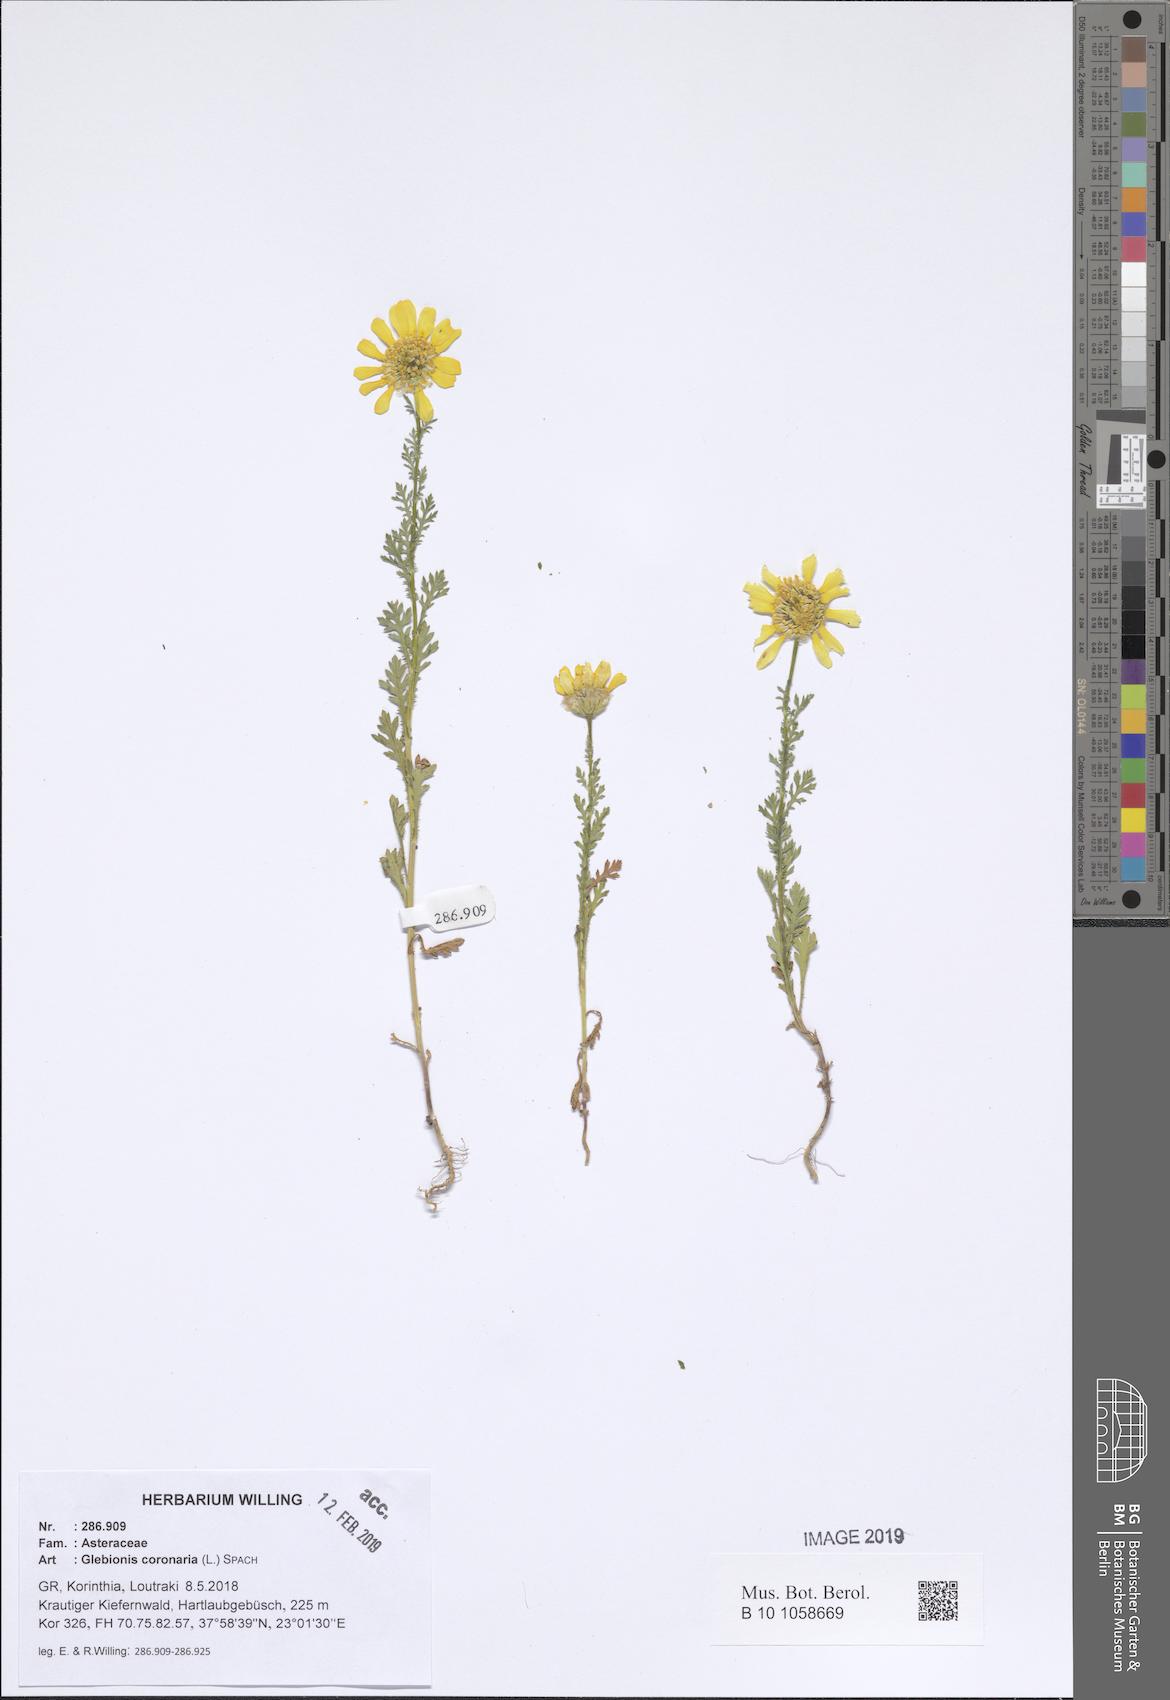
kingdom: Plantae
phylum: Tracheophyta
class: Magnoliopsida
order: Asterales
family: Asteraceae
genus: Glebionis
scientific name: Glebionis coronaria
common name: Crowndaisy
